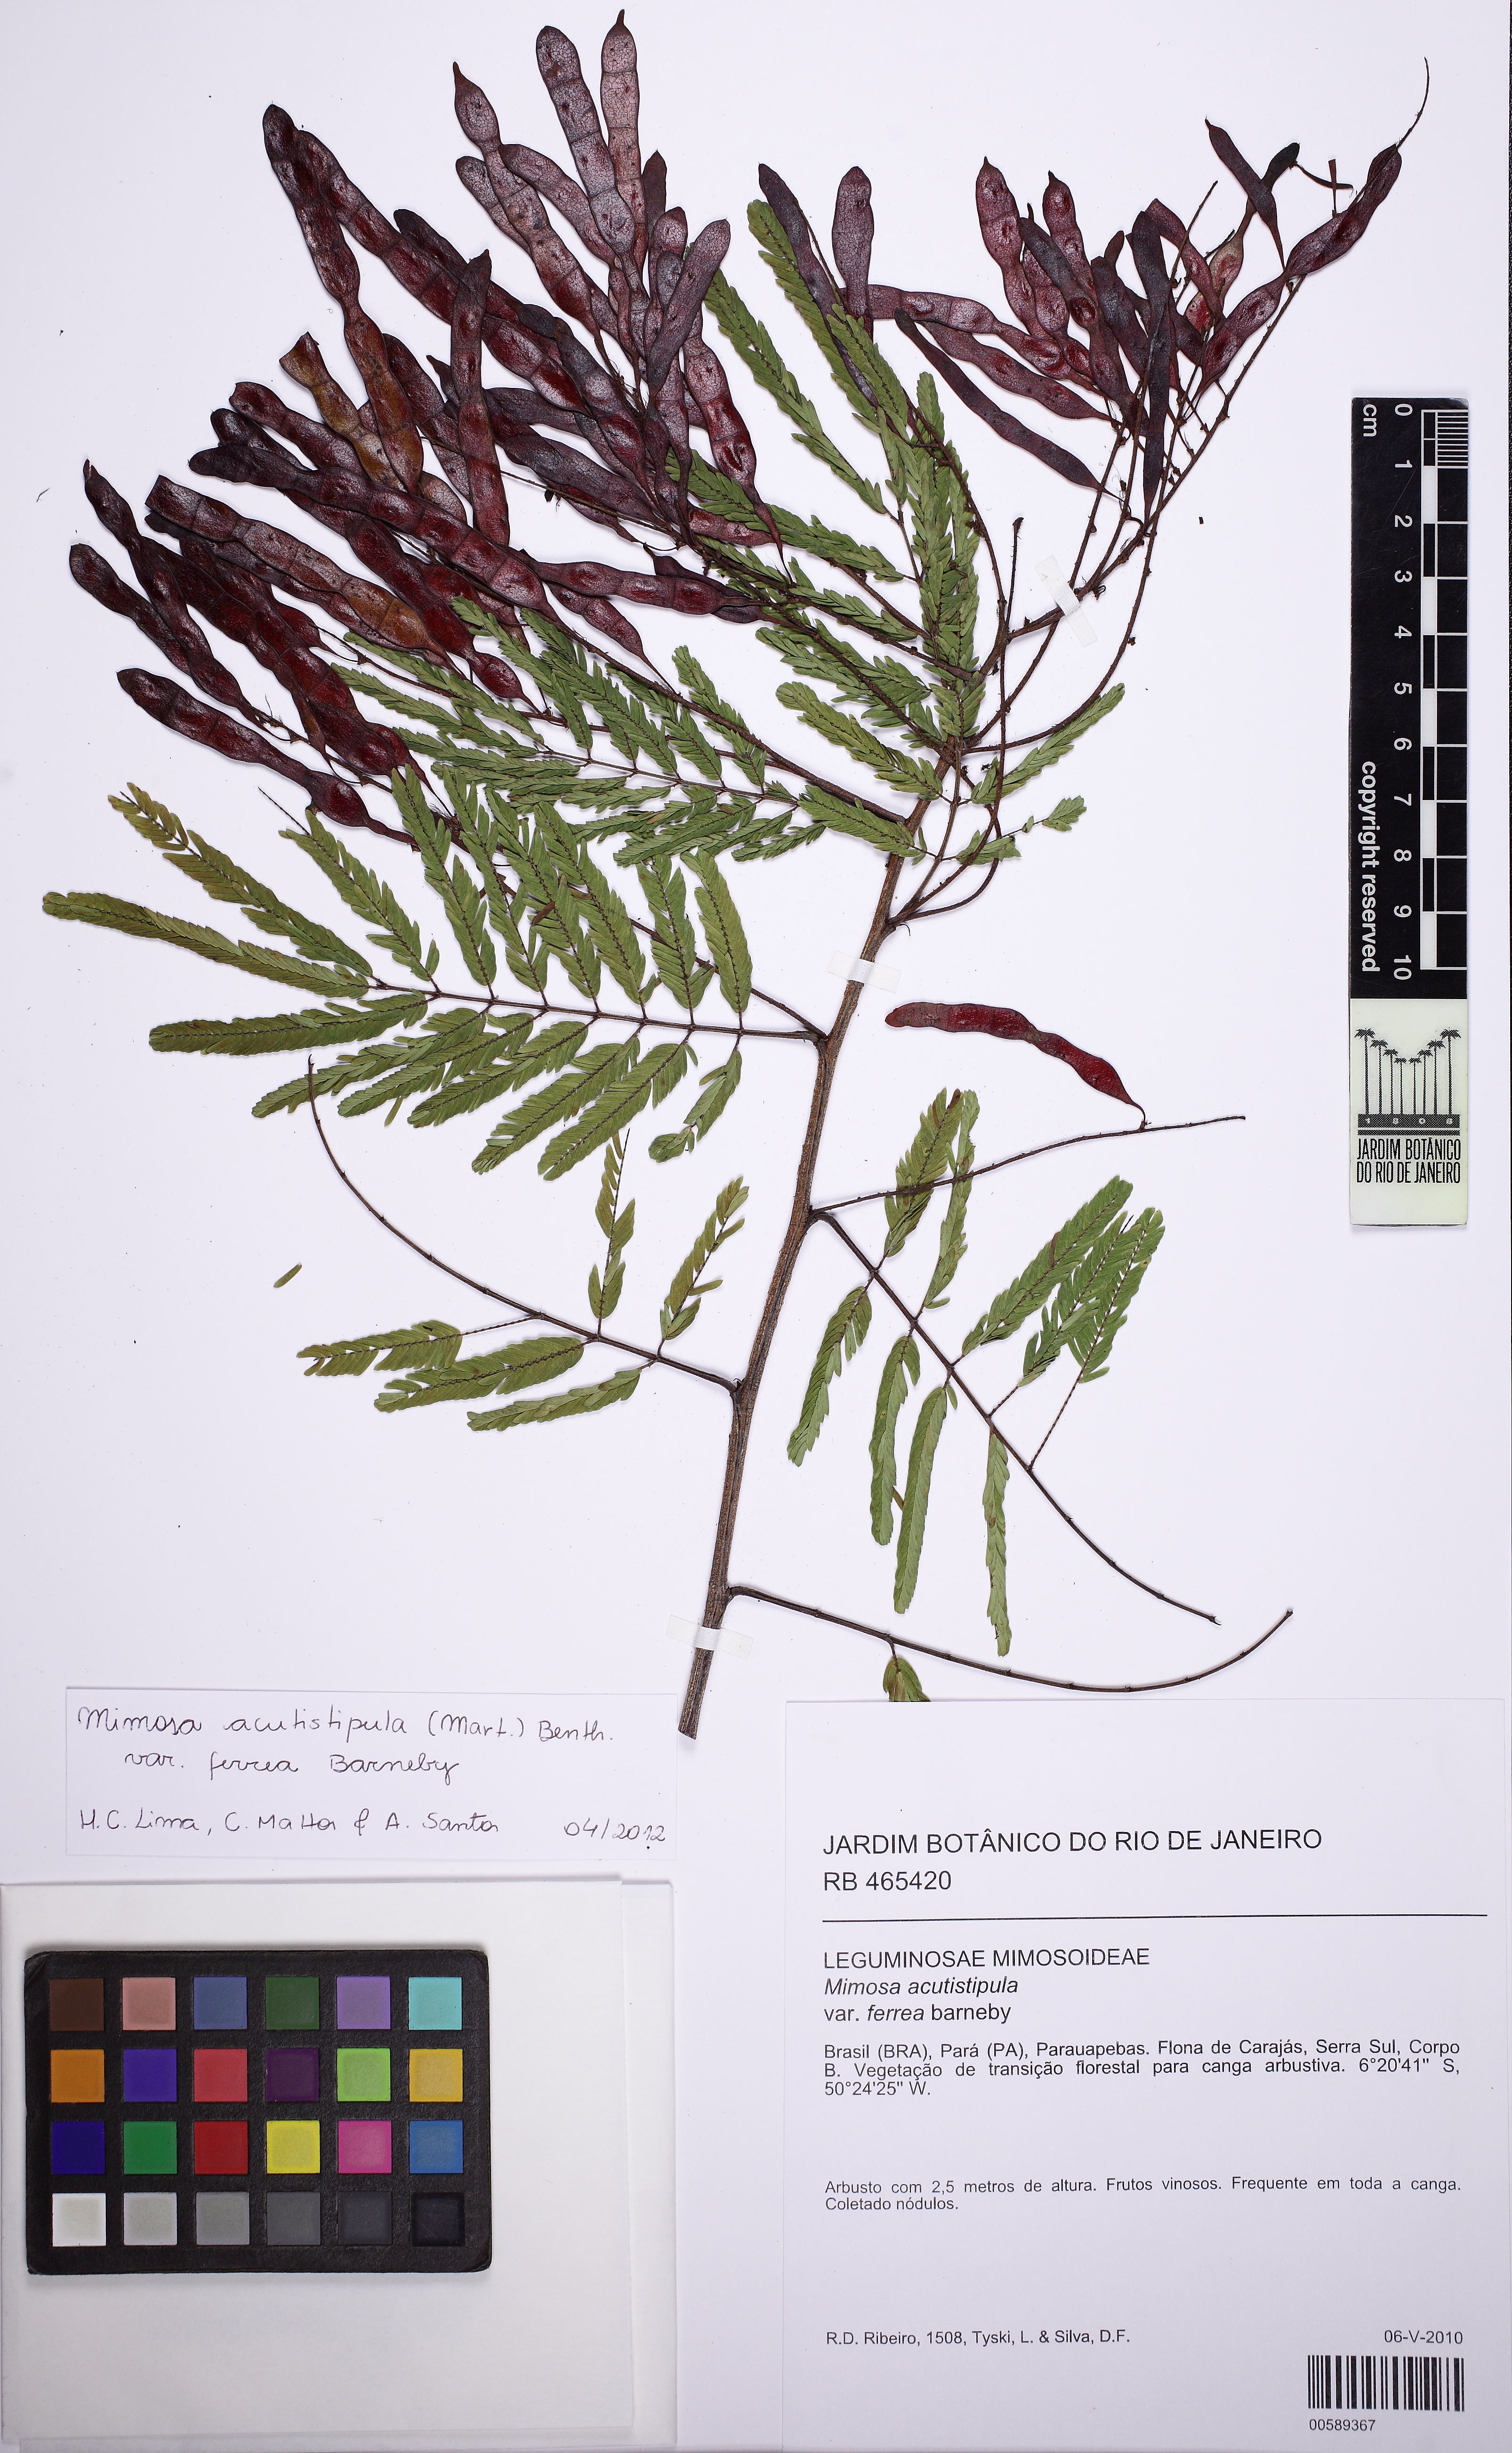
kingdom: Plantae
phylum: Tracheophyta
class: Magnoliopsida
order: Fabales
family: Fabaceae
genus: Mimosa
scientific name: Mimosa acutistipula
